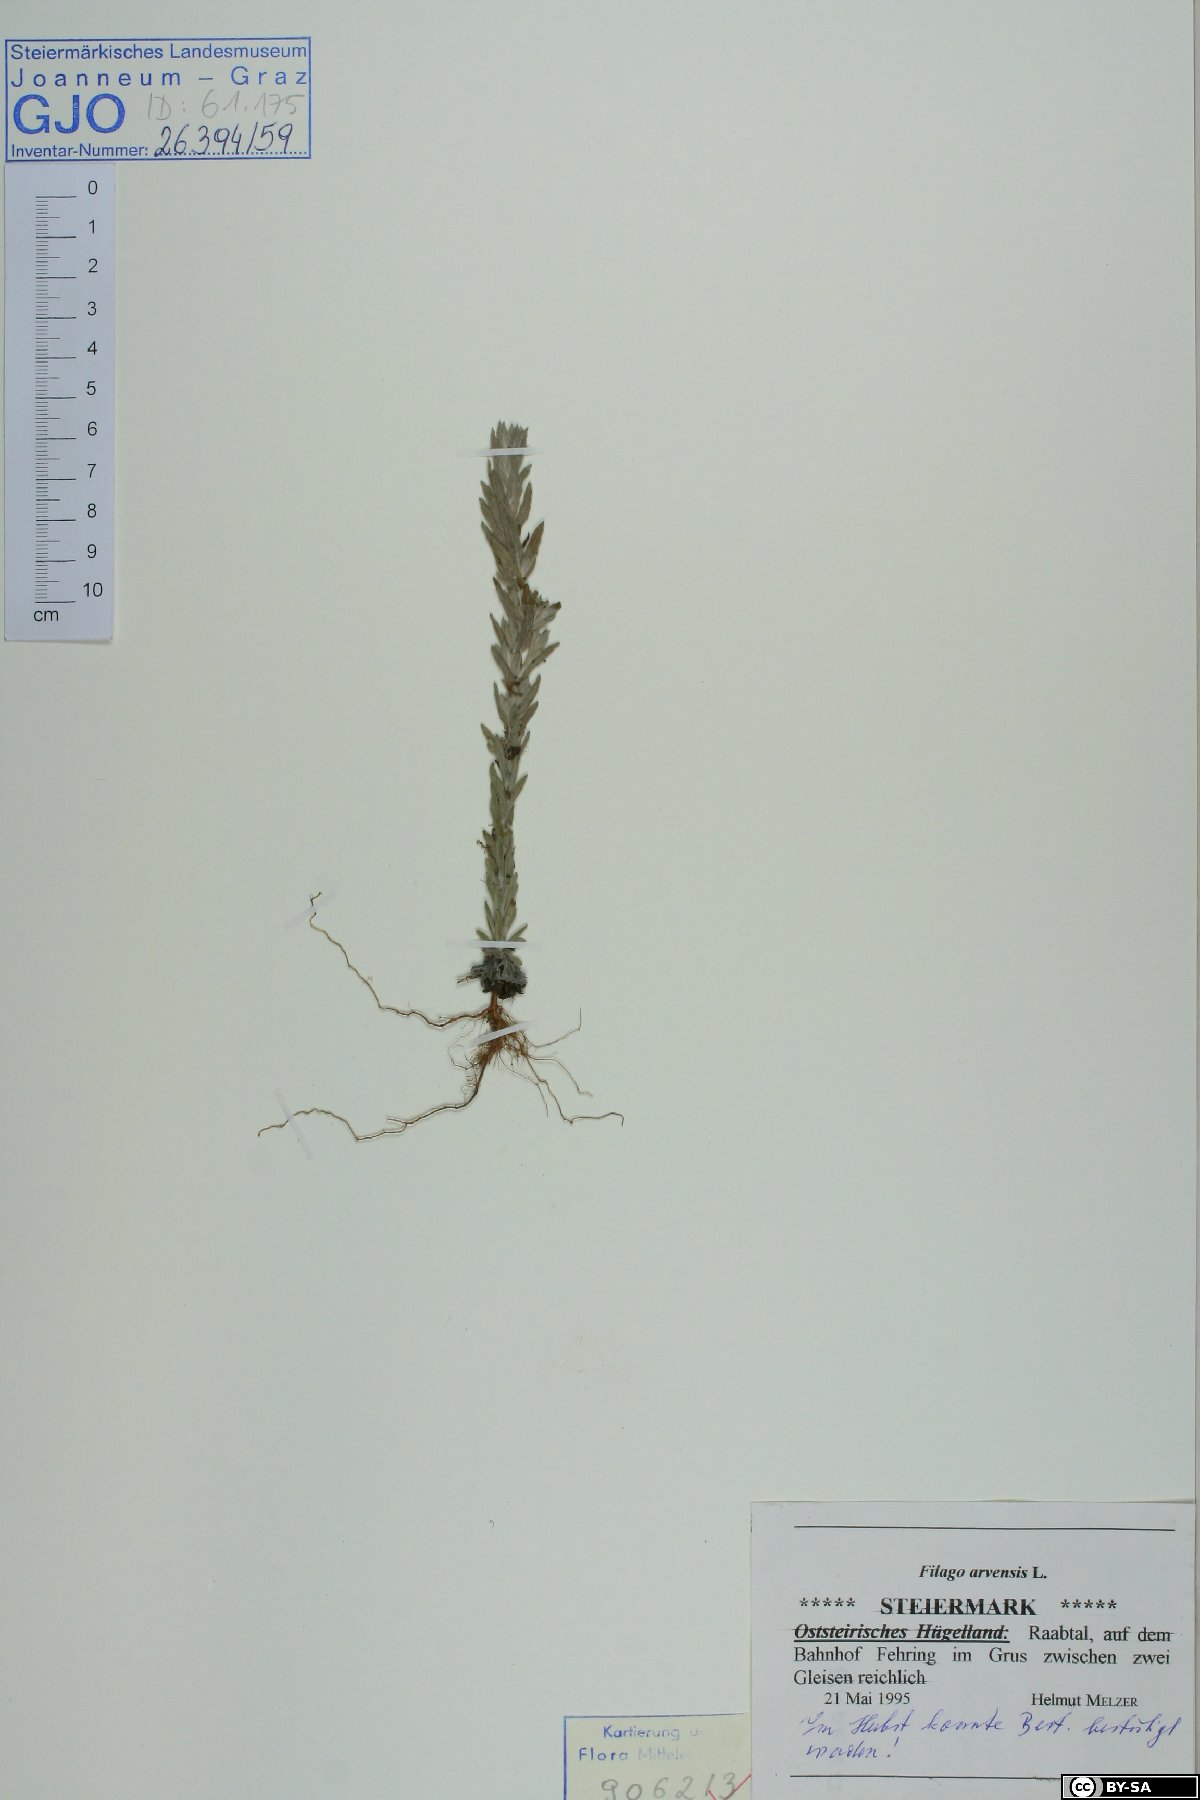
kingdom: Plantae
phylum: Tracheophyta
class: Magnoliopsida
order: Asterales
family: Asteraceae
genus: Filago
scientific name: Filago arvensis
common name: Field cudweed
